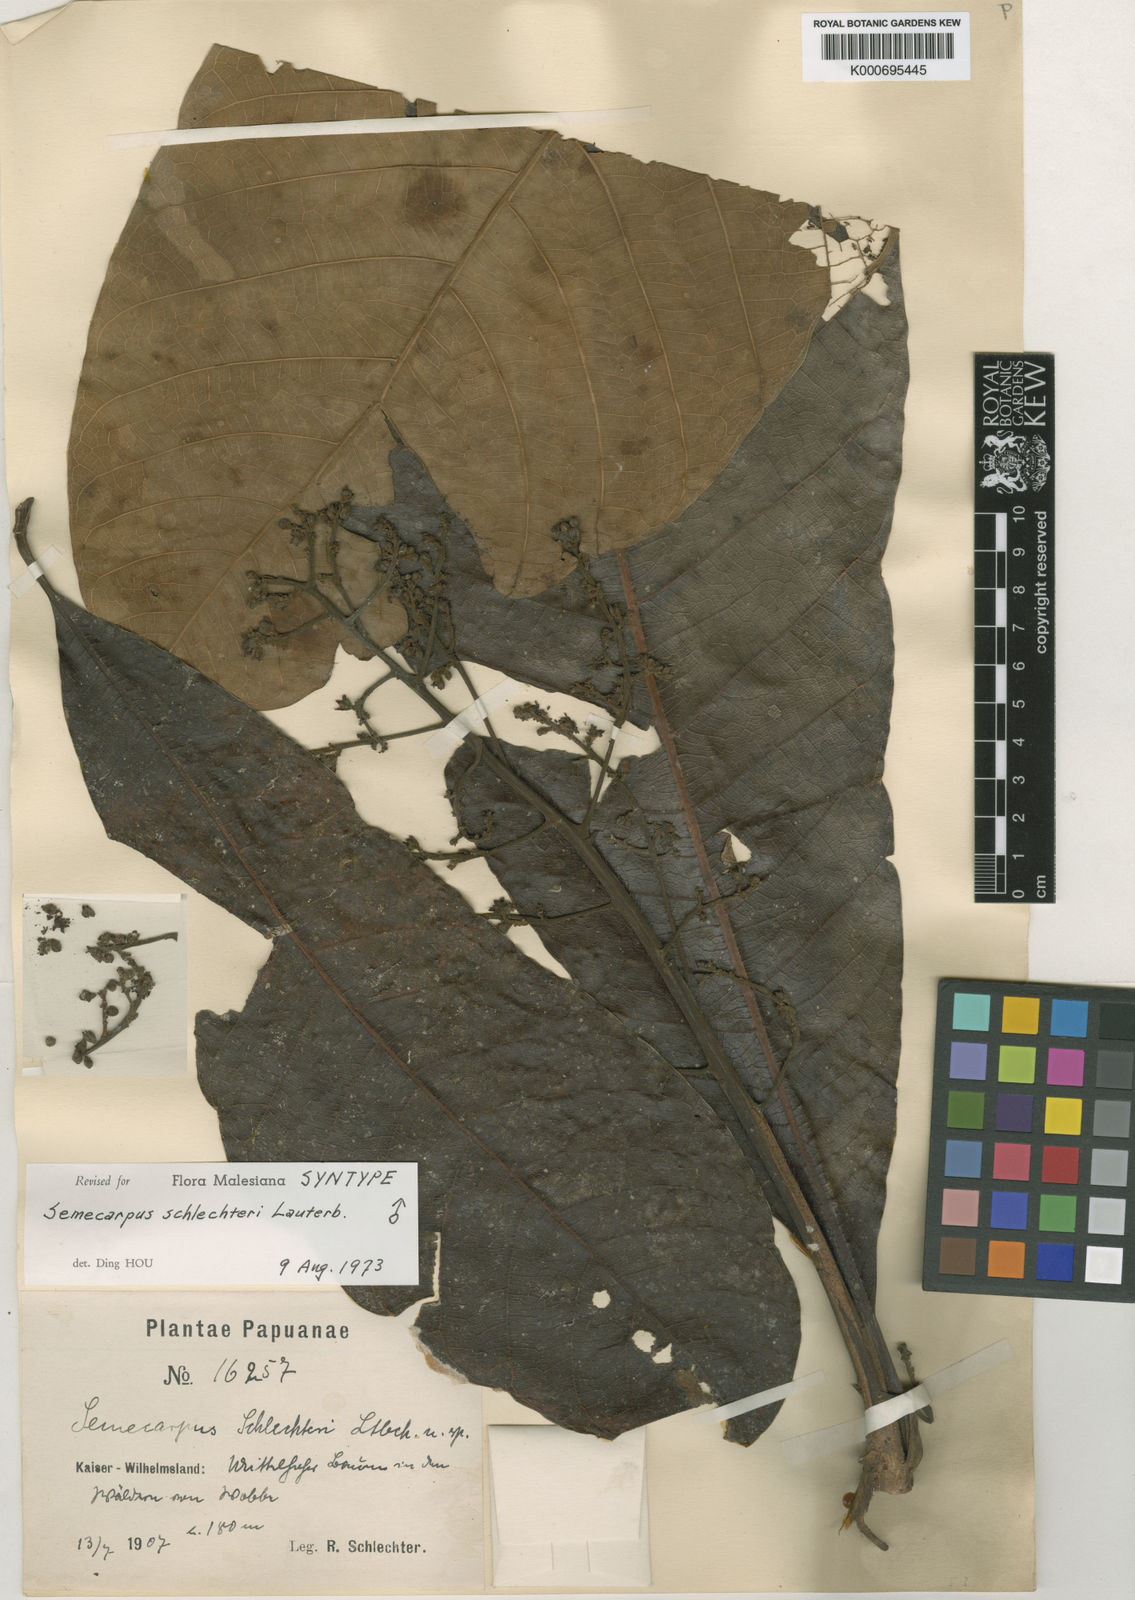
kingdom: Plantae
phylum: Tracheophyta
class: Magnoliopsida
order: Sapindales
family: Anacardiaceae
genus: Semecarpus
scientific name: Semecarpus schlechteri
